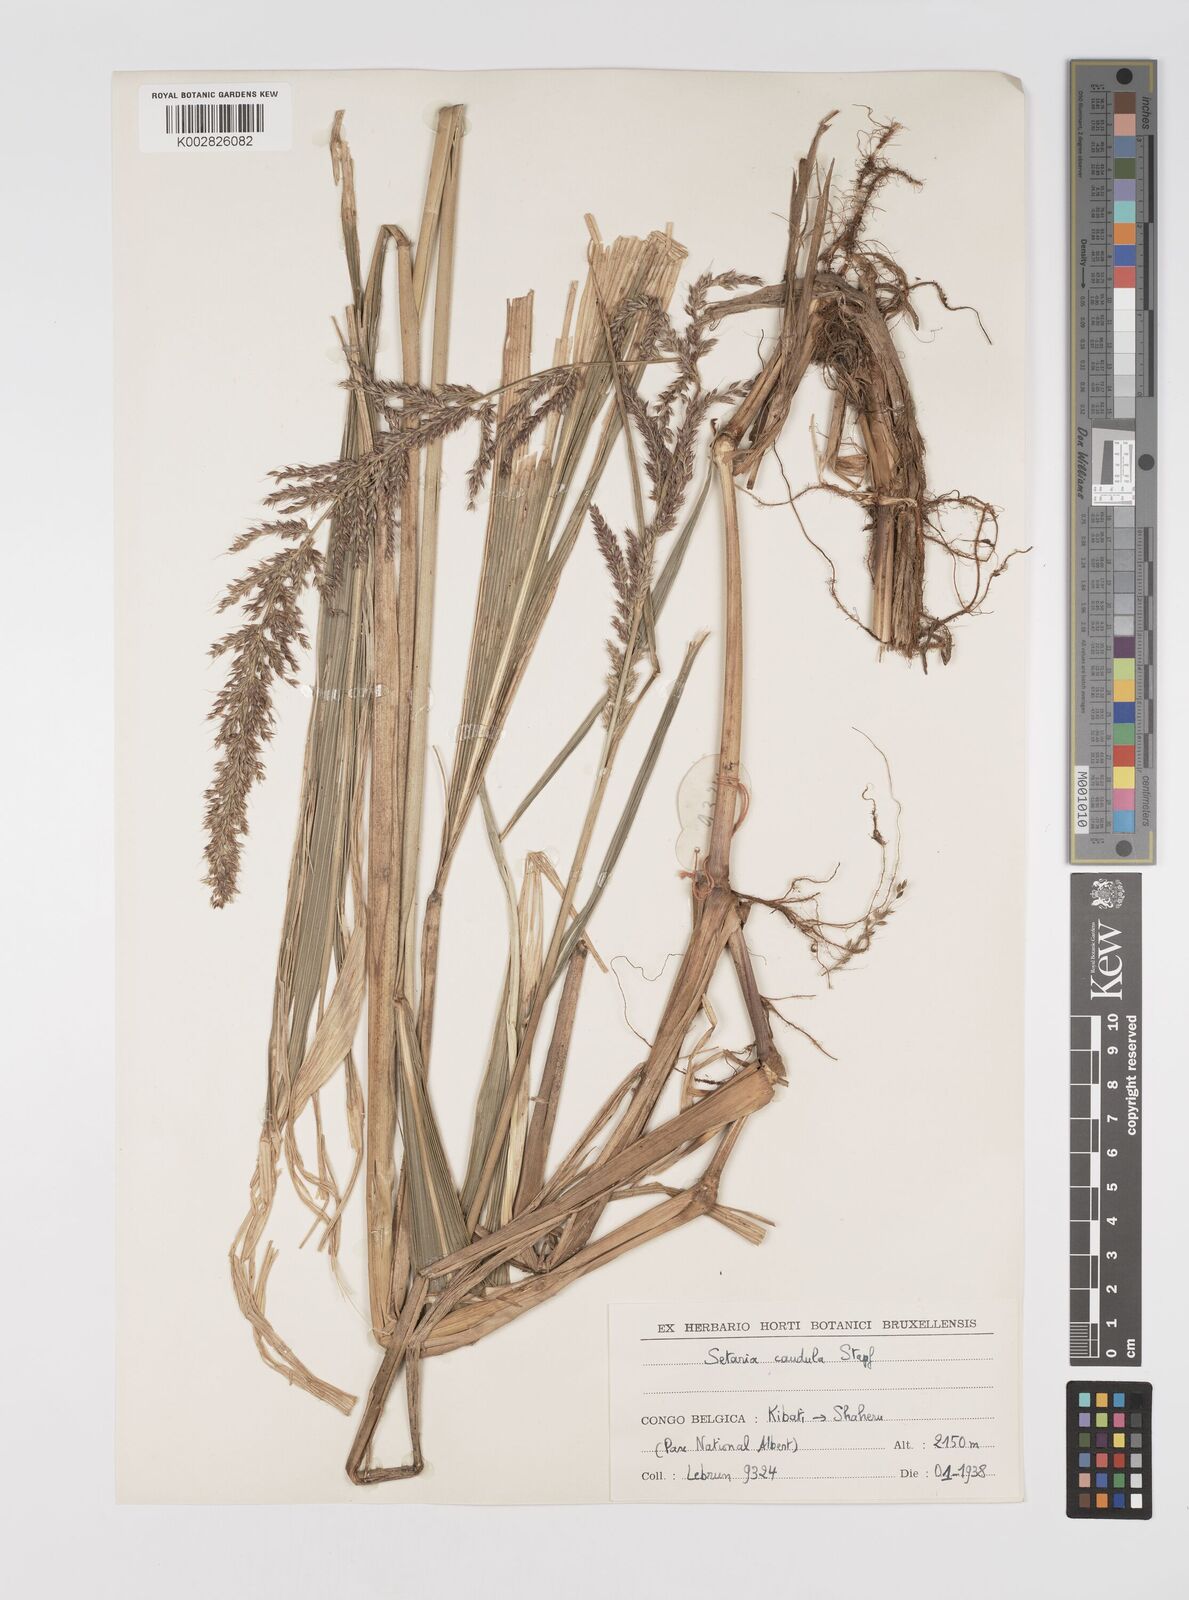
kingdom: Plantae
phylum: Tracheophyta
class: Liliopsida
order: Poales
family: Poaceae
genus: Setaria
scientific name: Setaria poiretiana
